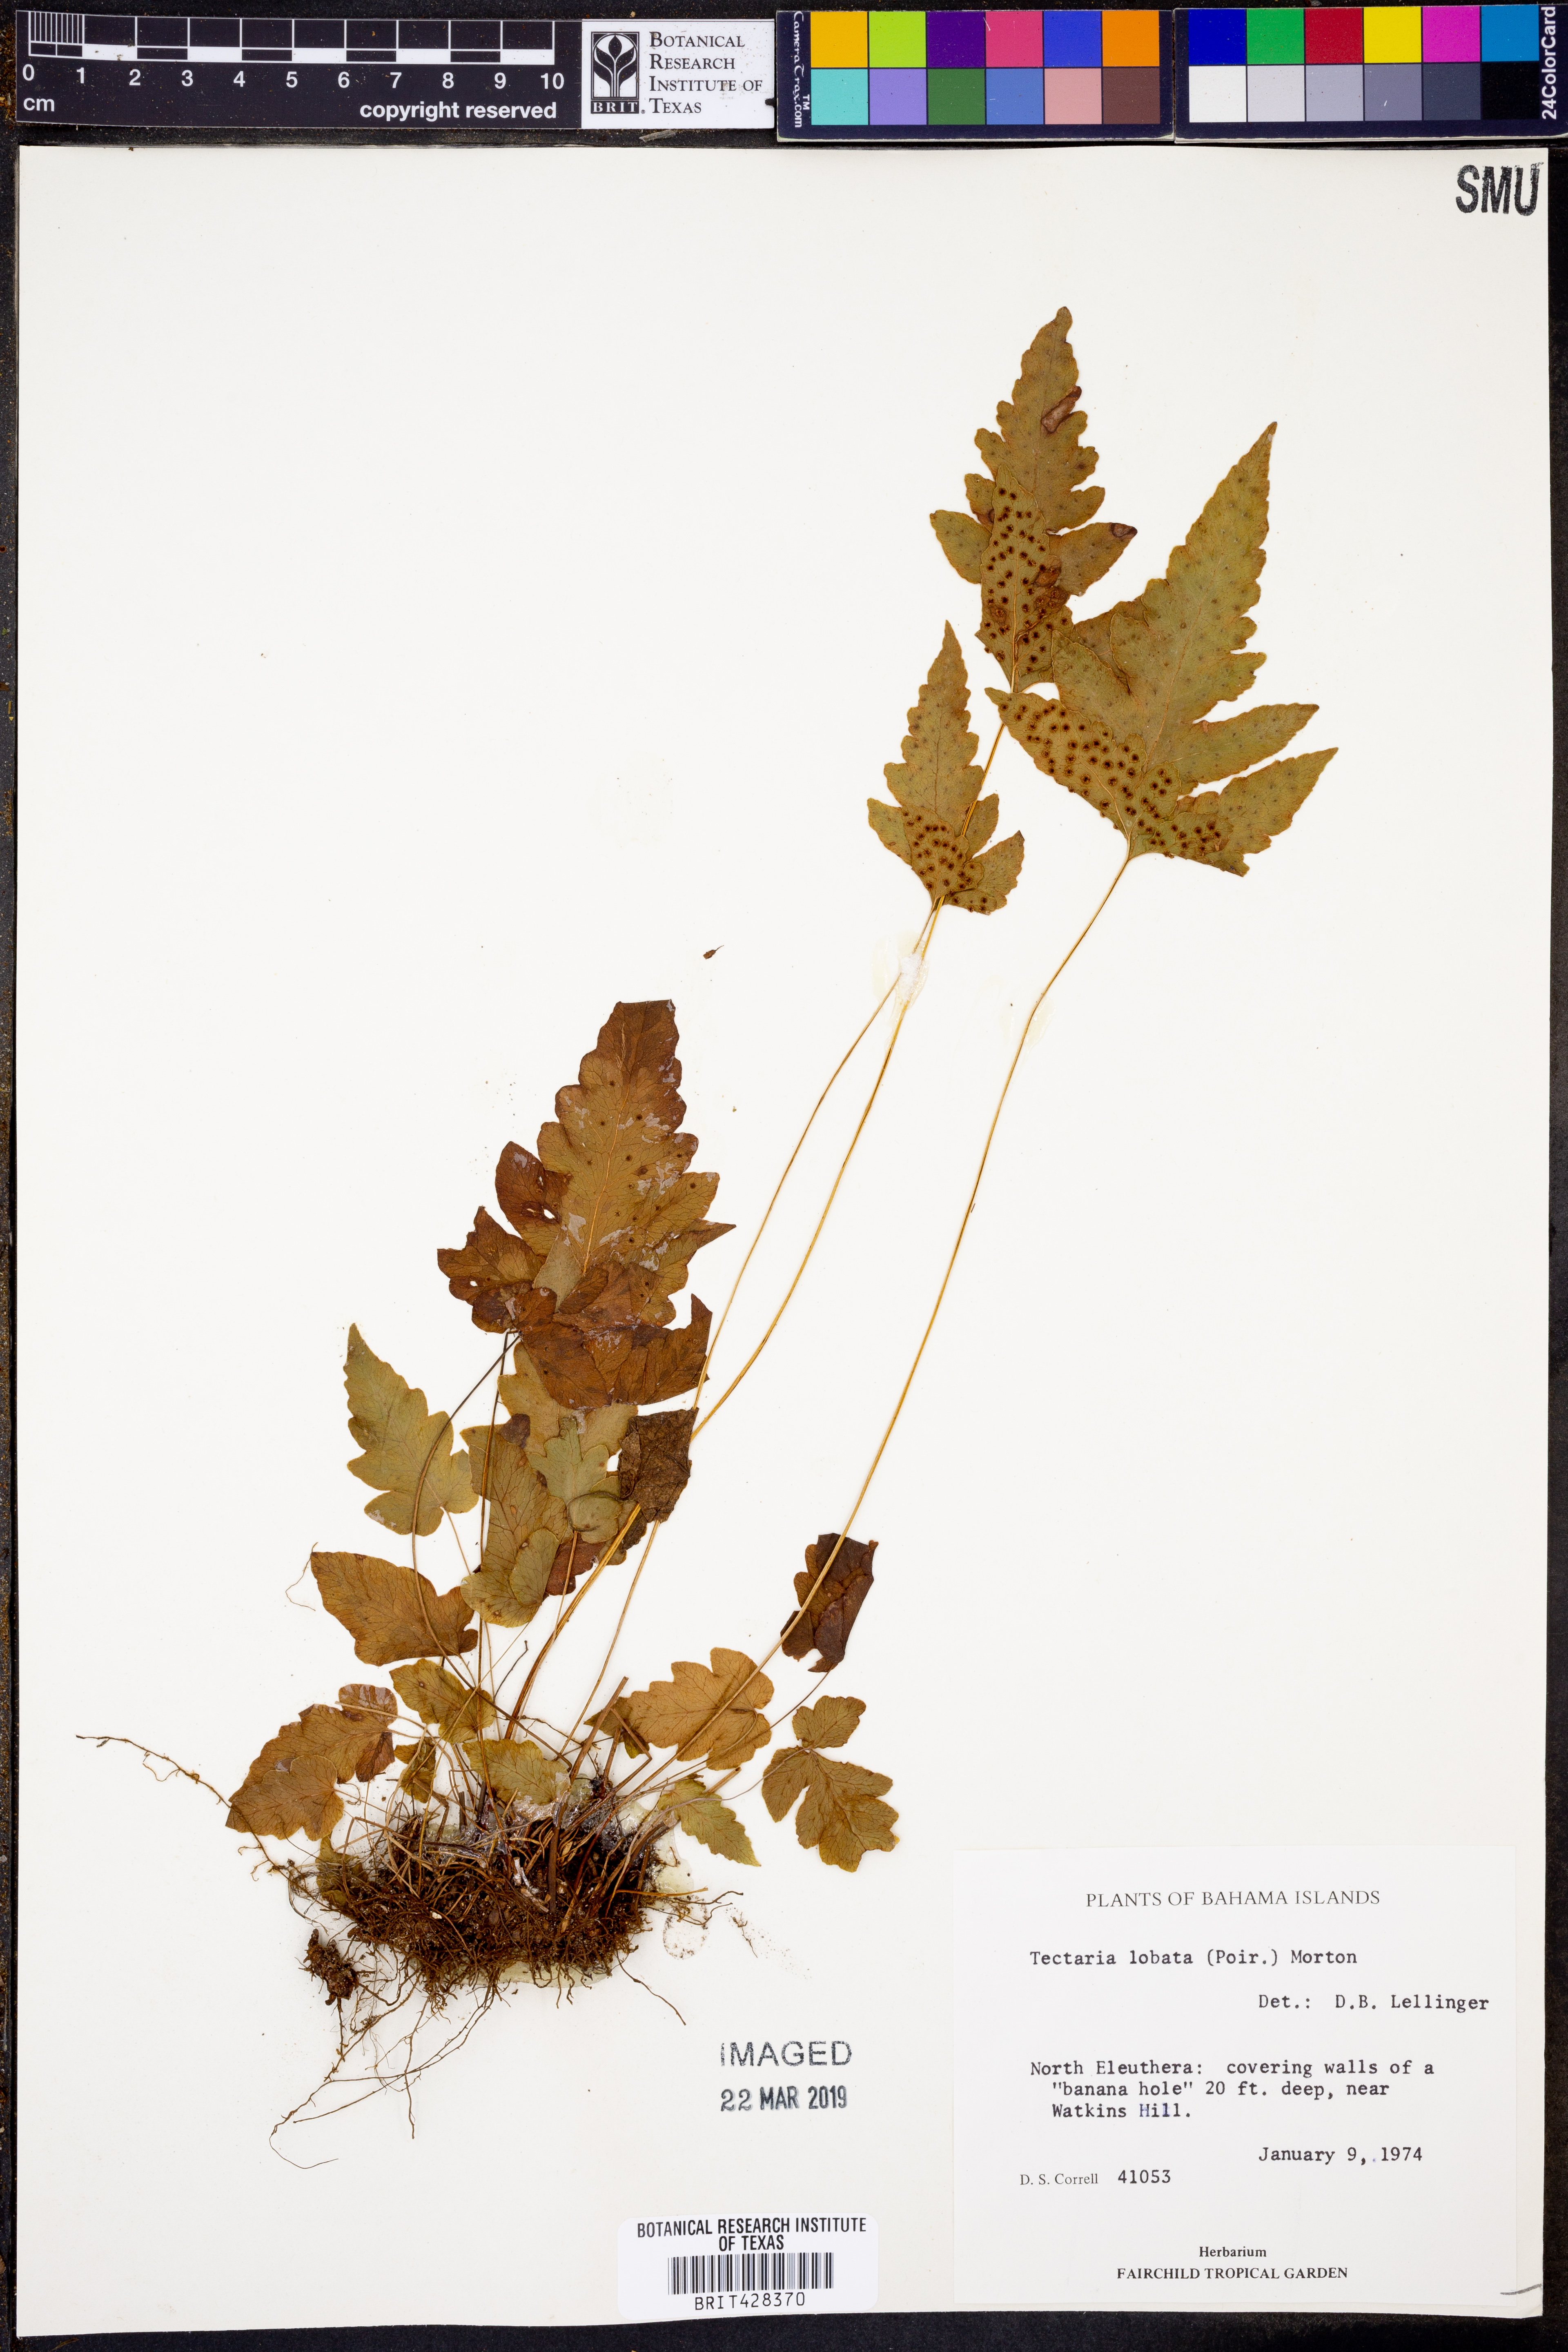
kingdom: Plantae
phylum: Tracheophyta
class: Polypodiopsida
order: Polypodiales
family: Tectariaceae
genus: Tectaria
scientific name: Tectaria fimbriata
